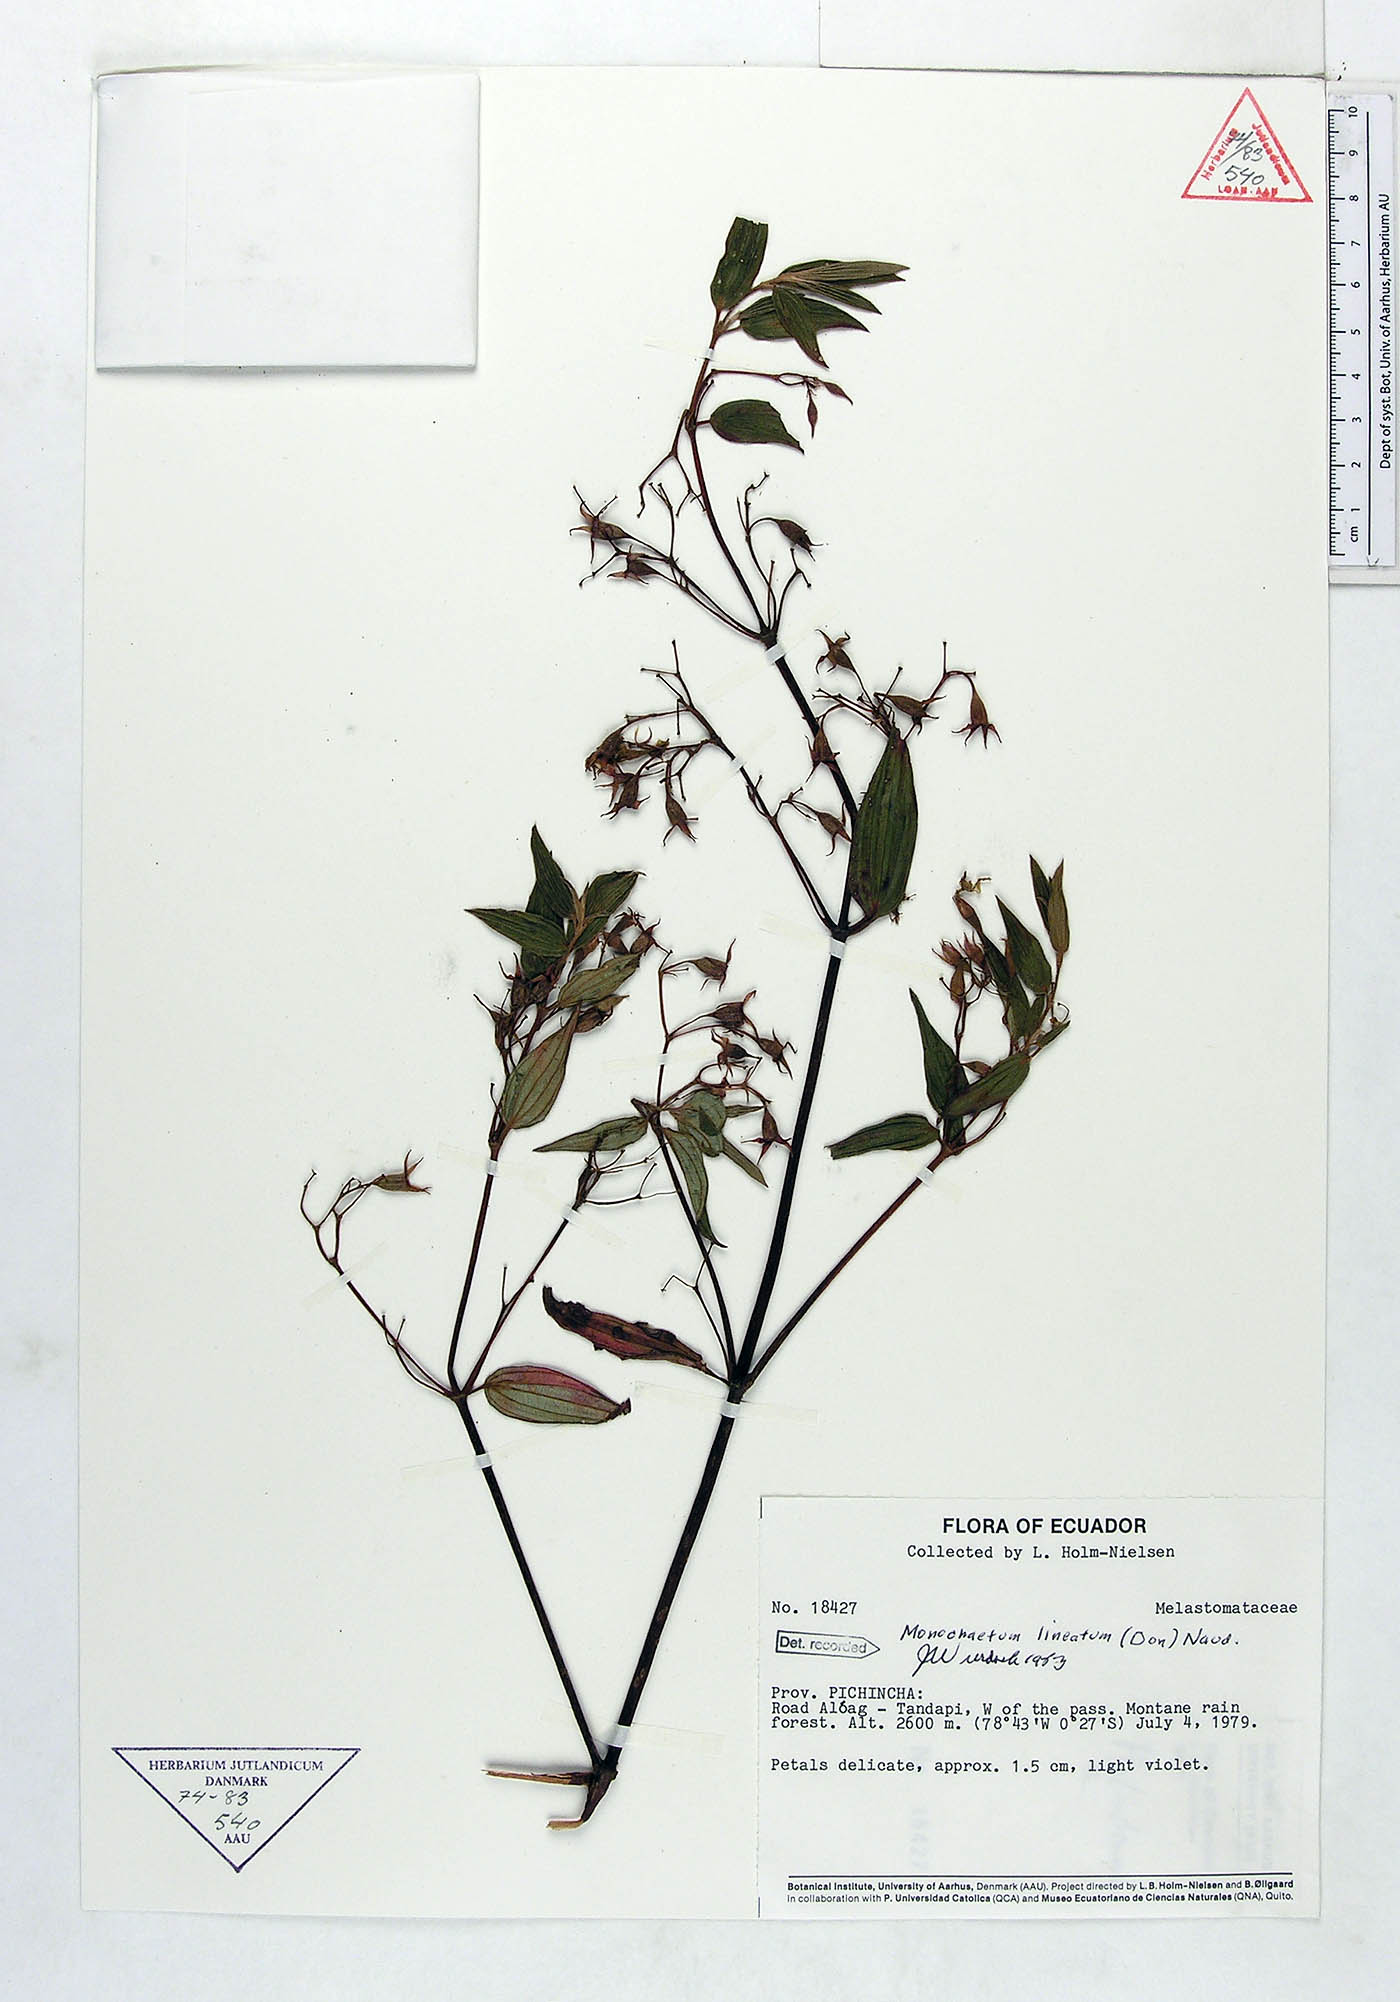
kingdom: Plantae
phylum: Tracheophyta
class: Magnoliopsida
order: Myrtales
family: Melastomataceae
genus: Monochaetum
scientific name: Monochaetum lineatum
